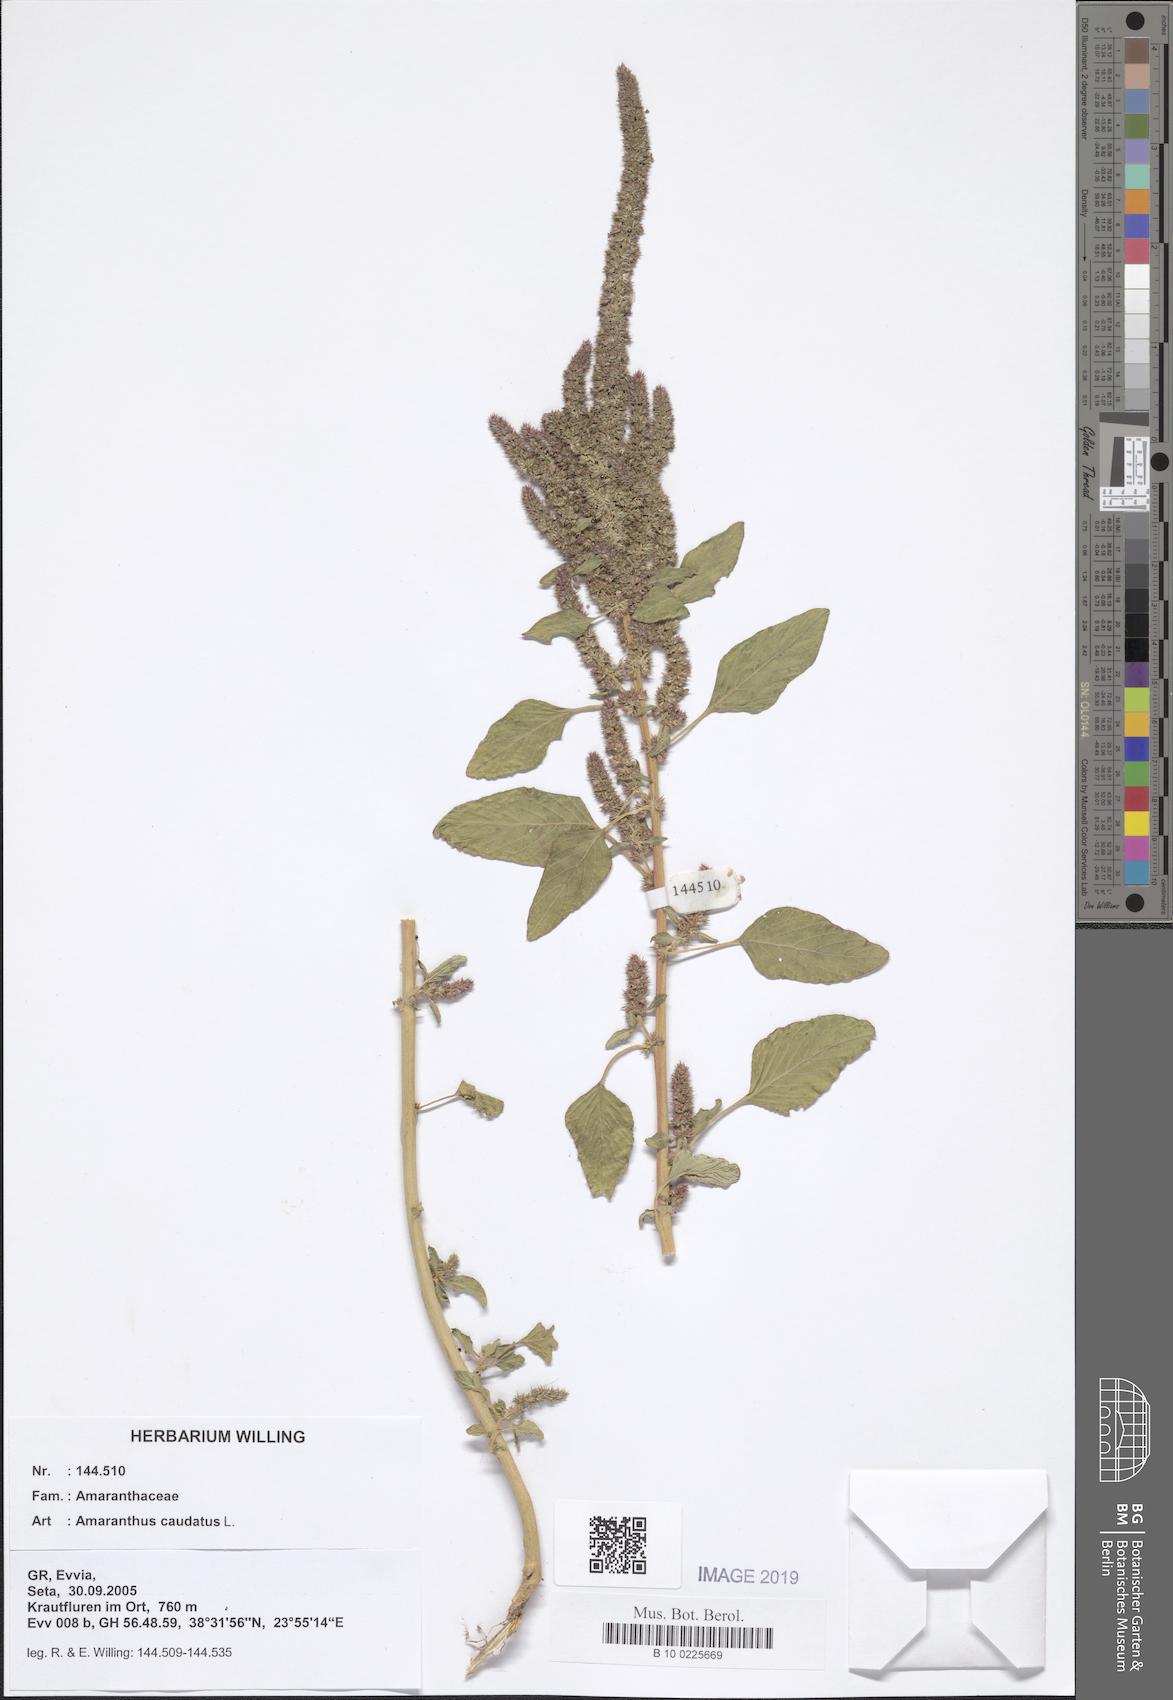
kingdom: Plantae
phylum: Tracheophyta
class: Magnoliopsida
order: Caryophyllales
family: Amaranthaceae
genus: Amaranthus
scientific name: Amaranthus caudatus
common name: Love-lies-bleeding
